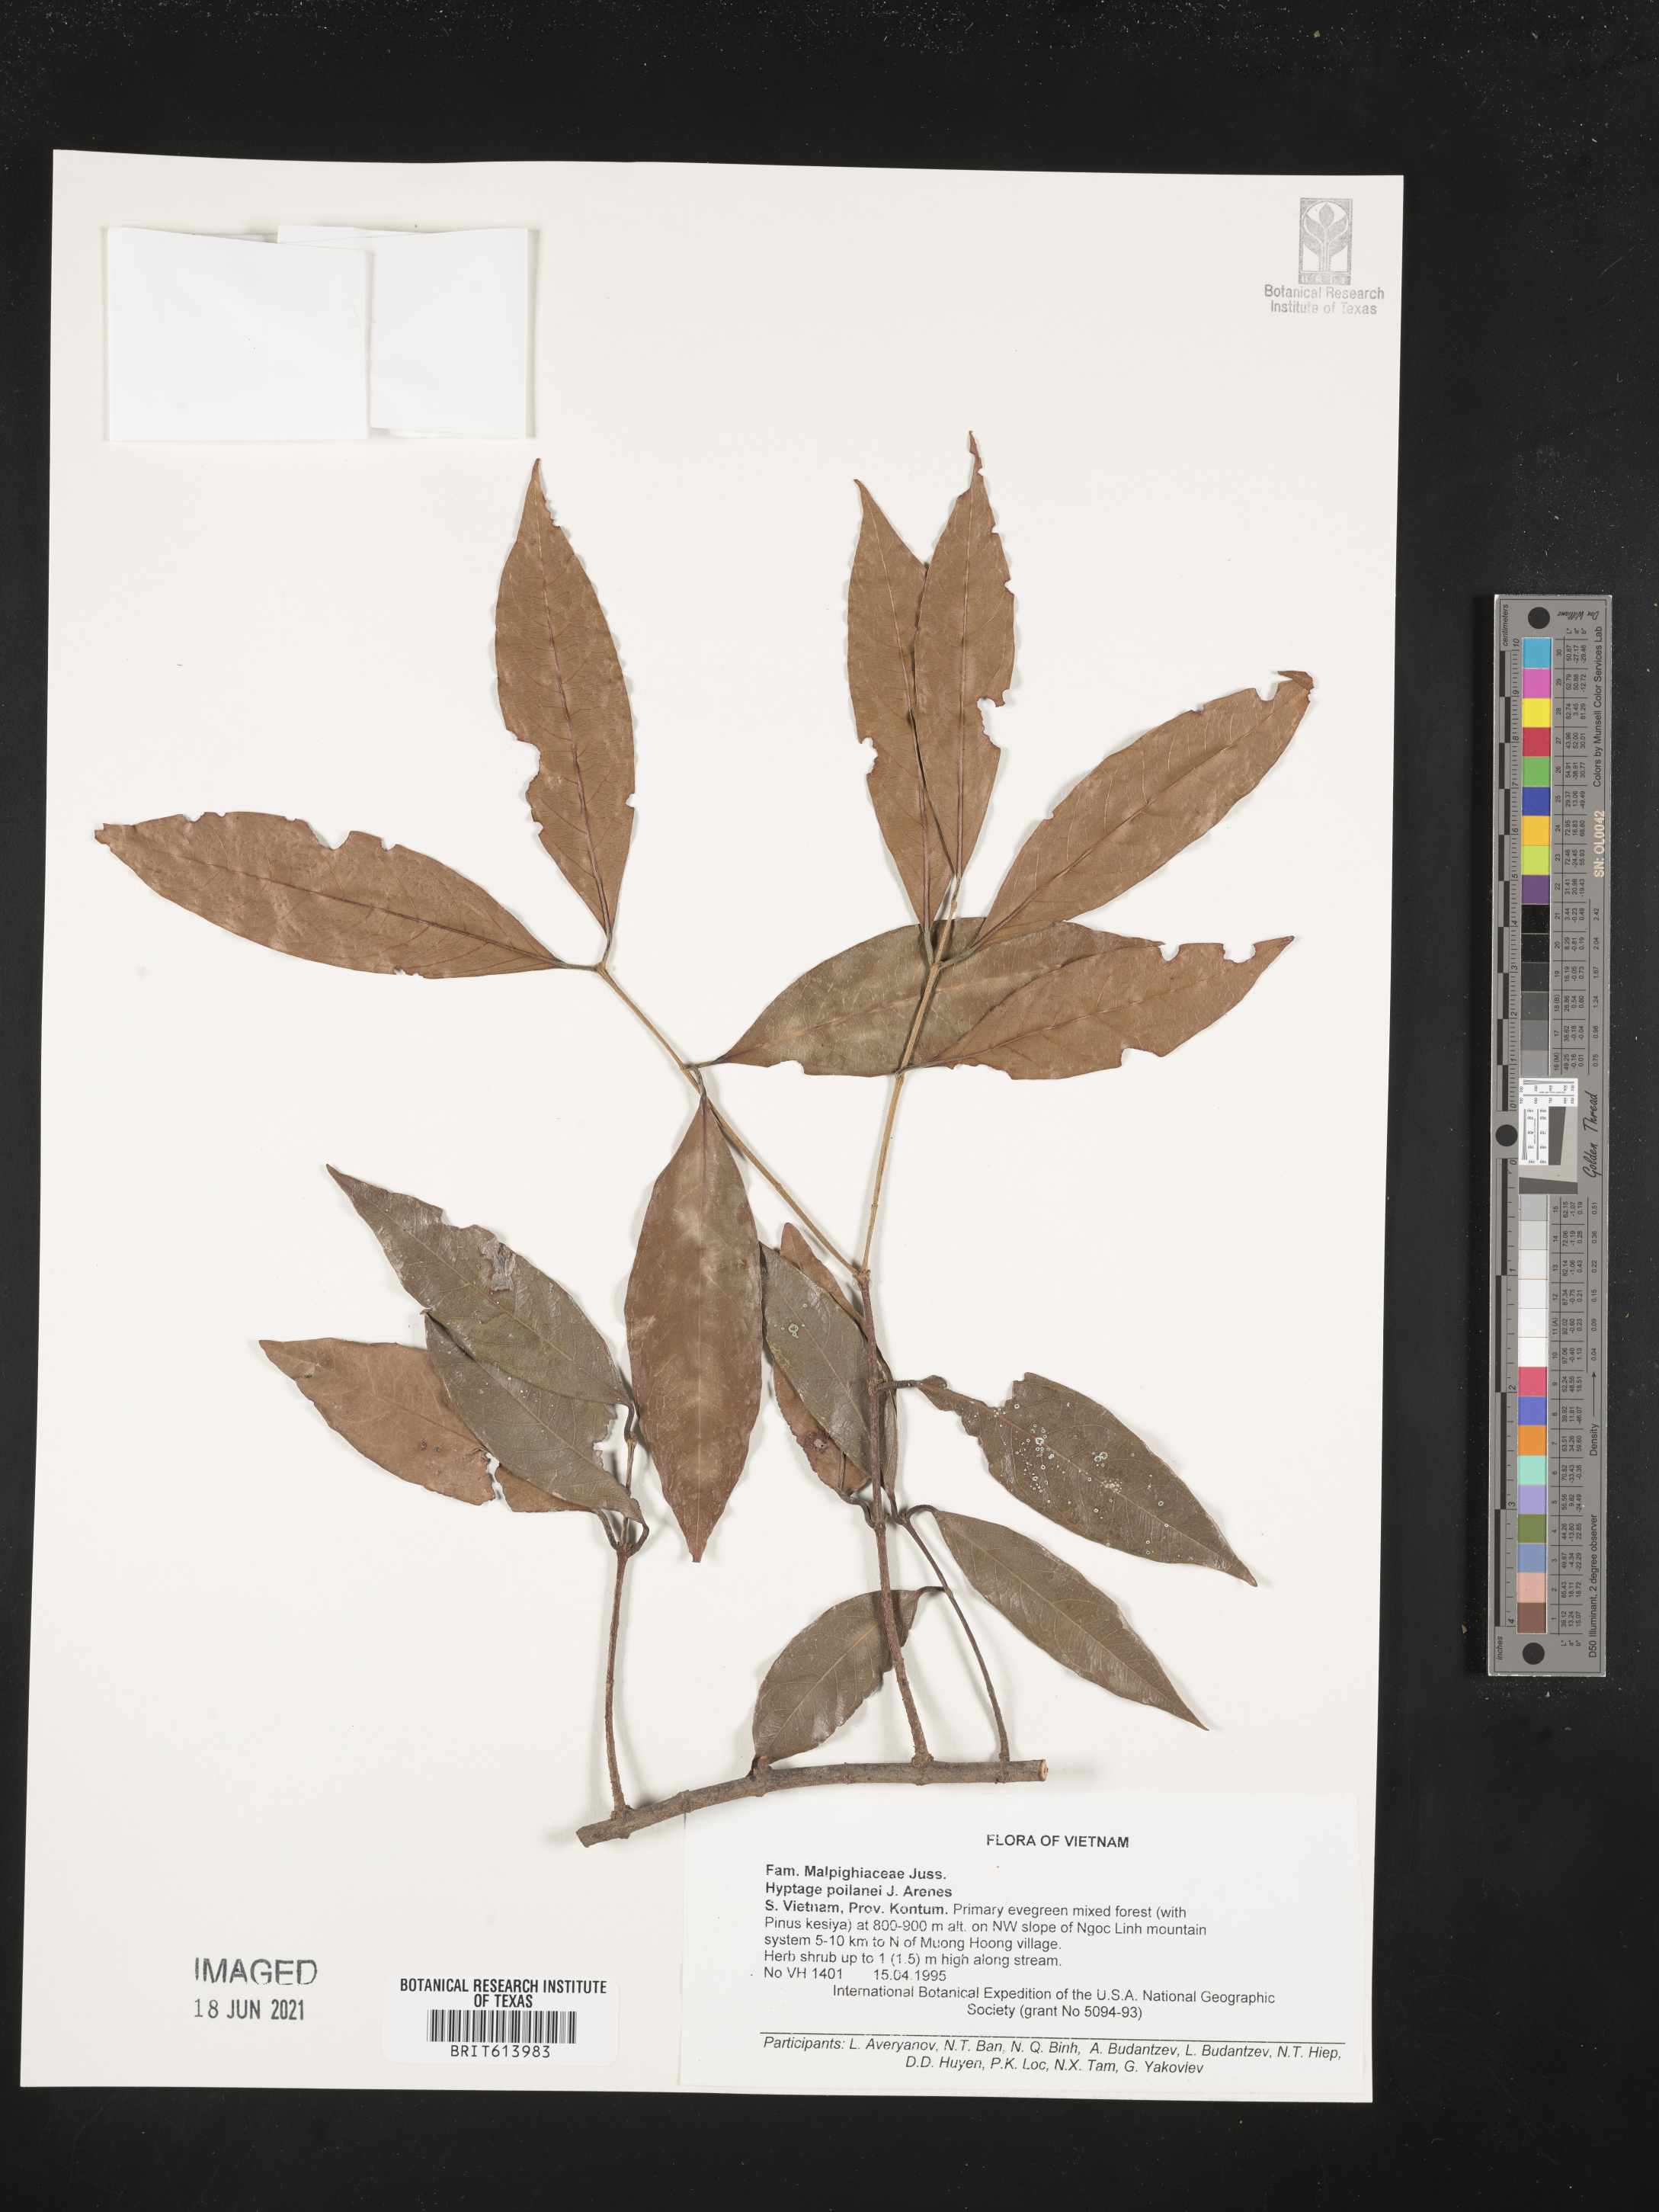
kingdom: Plantae
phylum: Tracheophyta
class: Magnoliopsida
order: Malpighiales
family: Malpighiaceae
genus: Hiptage
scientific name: Hiptage poilanei
